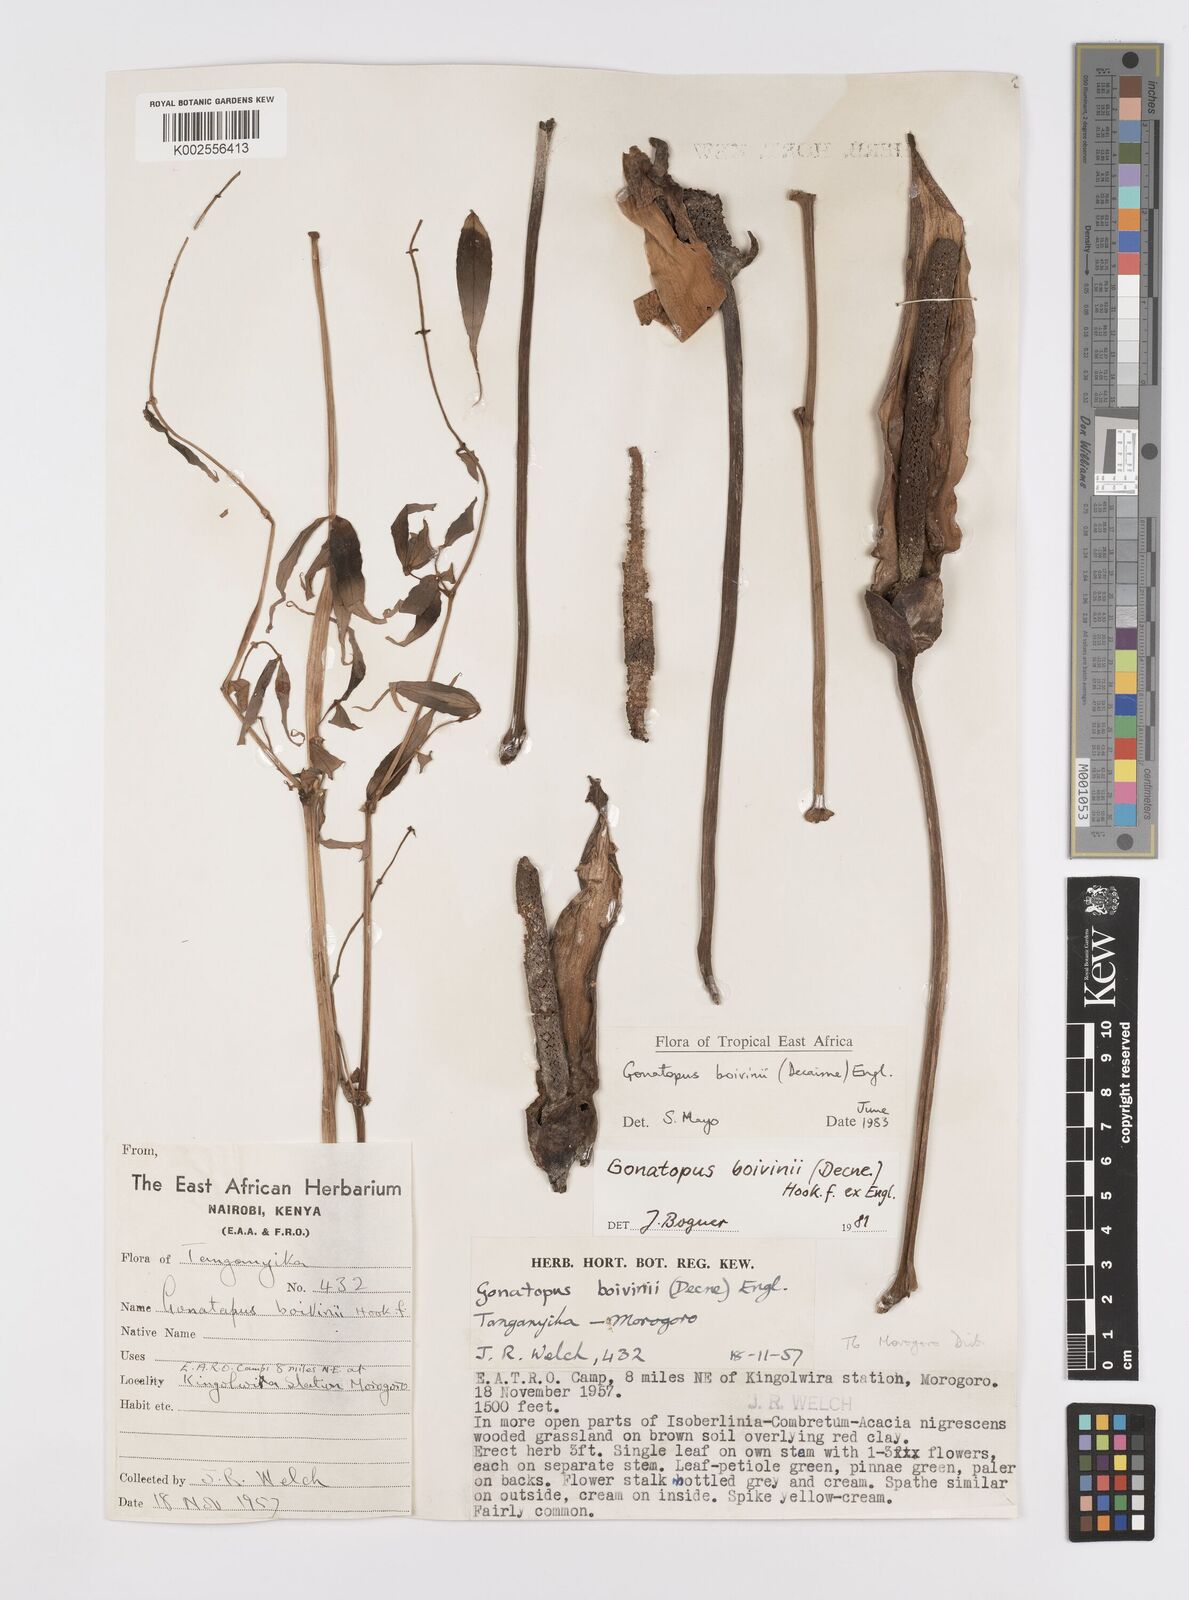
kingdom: Plantae
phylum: Tracheophyta
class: Liliopsida
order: Alismatales
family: Araceae
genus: Gonatopus
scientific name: Gonatopus boivinii
